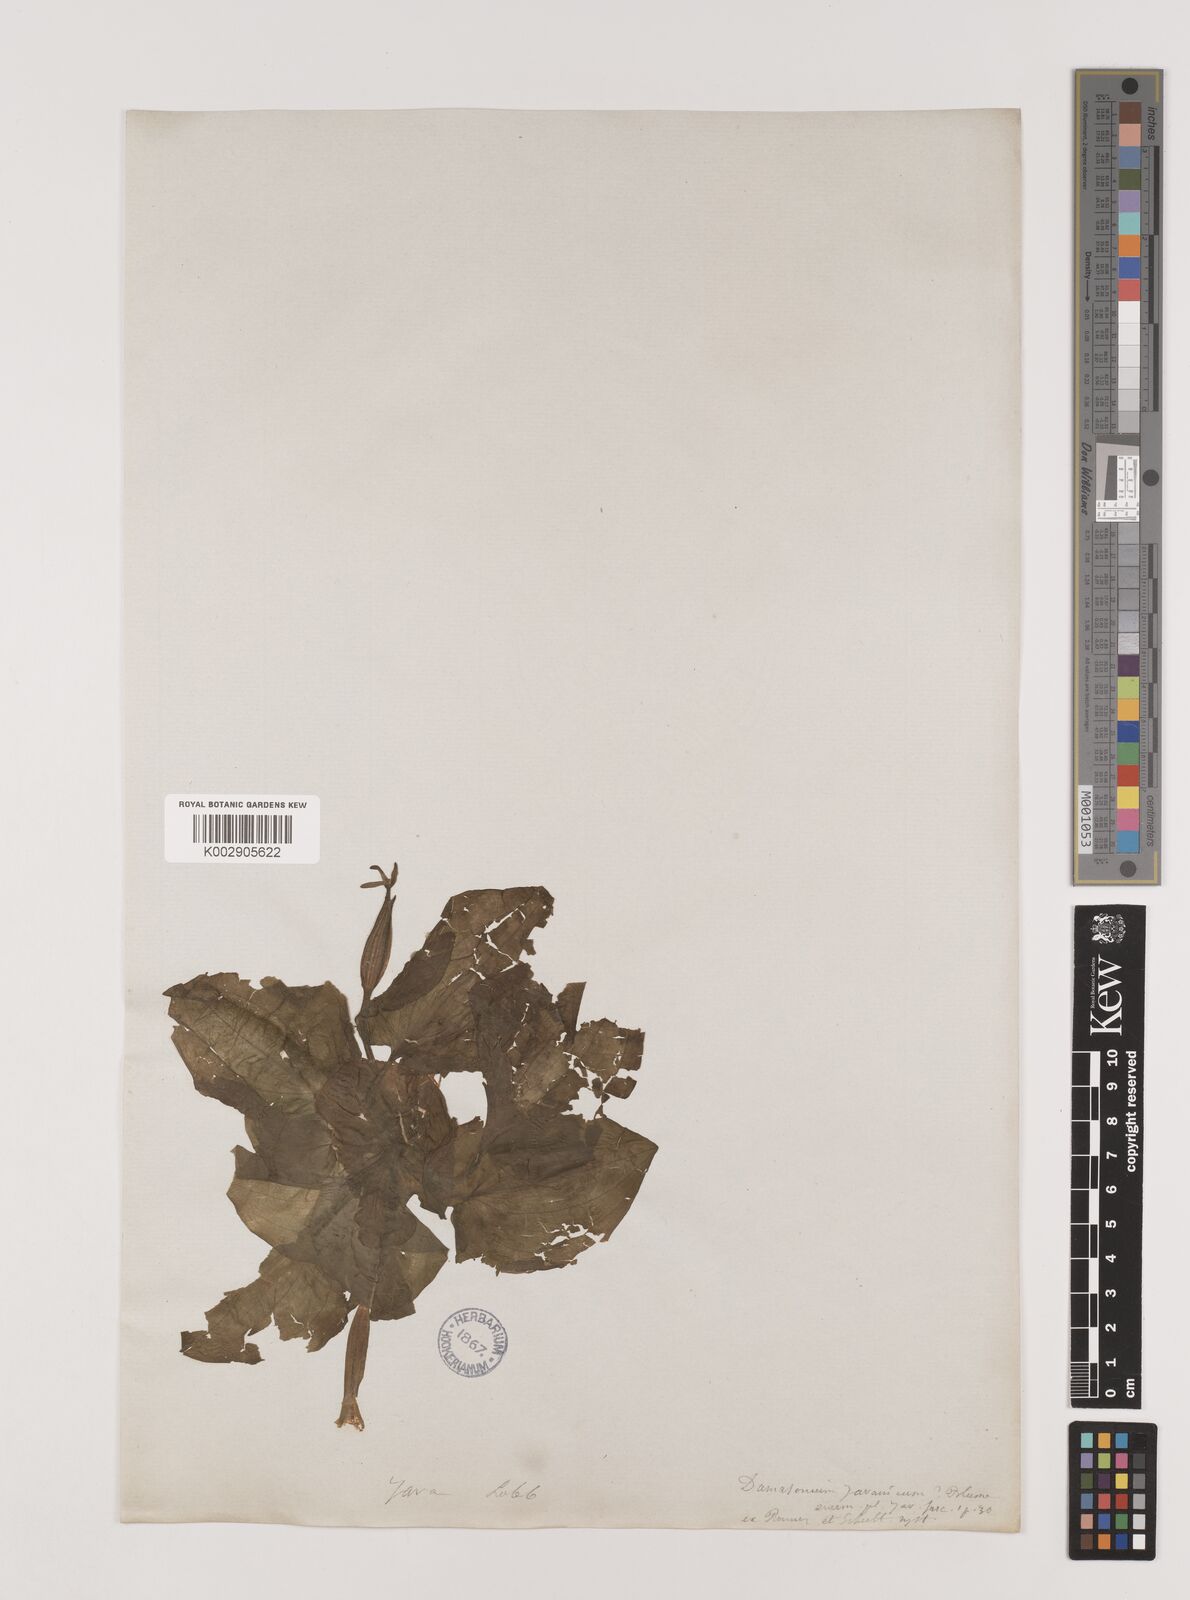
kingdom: Plantae
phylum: Tracheophyta
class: Liliopsida
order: Alismatales
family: Hydrocharitaceae
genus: Ottelia
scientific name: Ottelia alismoides
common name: Duck-lettuce
